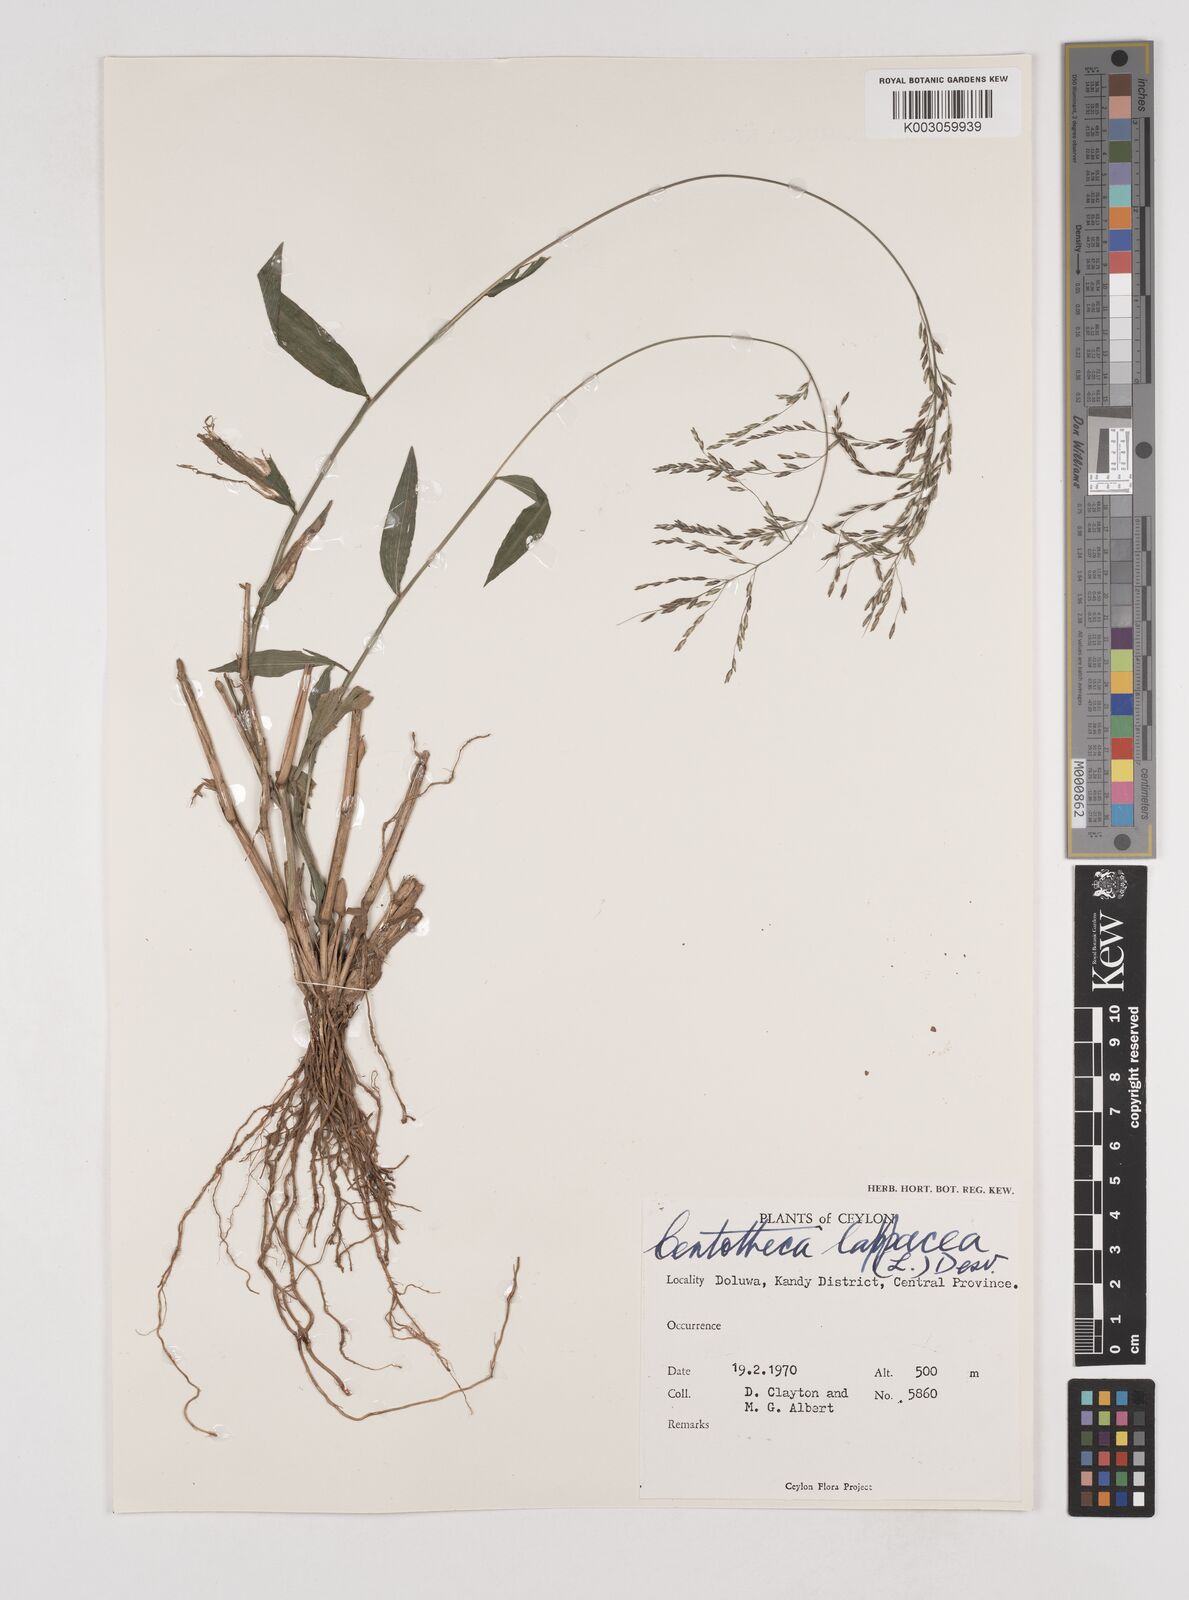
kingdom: Plantae
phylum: Tracheophyta
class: Liliopsida
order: Poales
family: Poaceae
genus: Centotheca
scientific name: Centotheca lappacea
